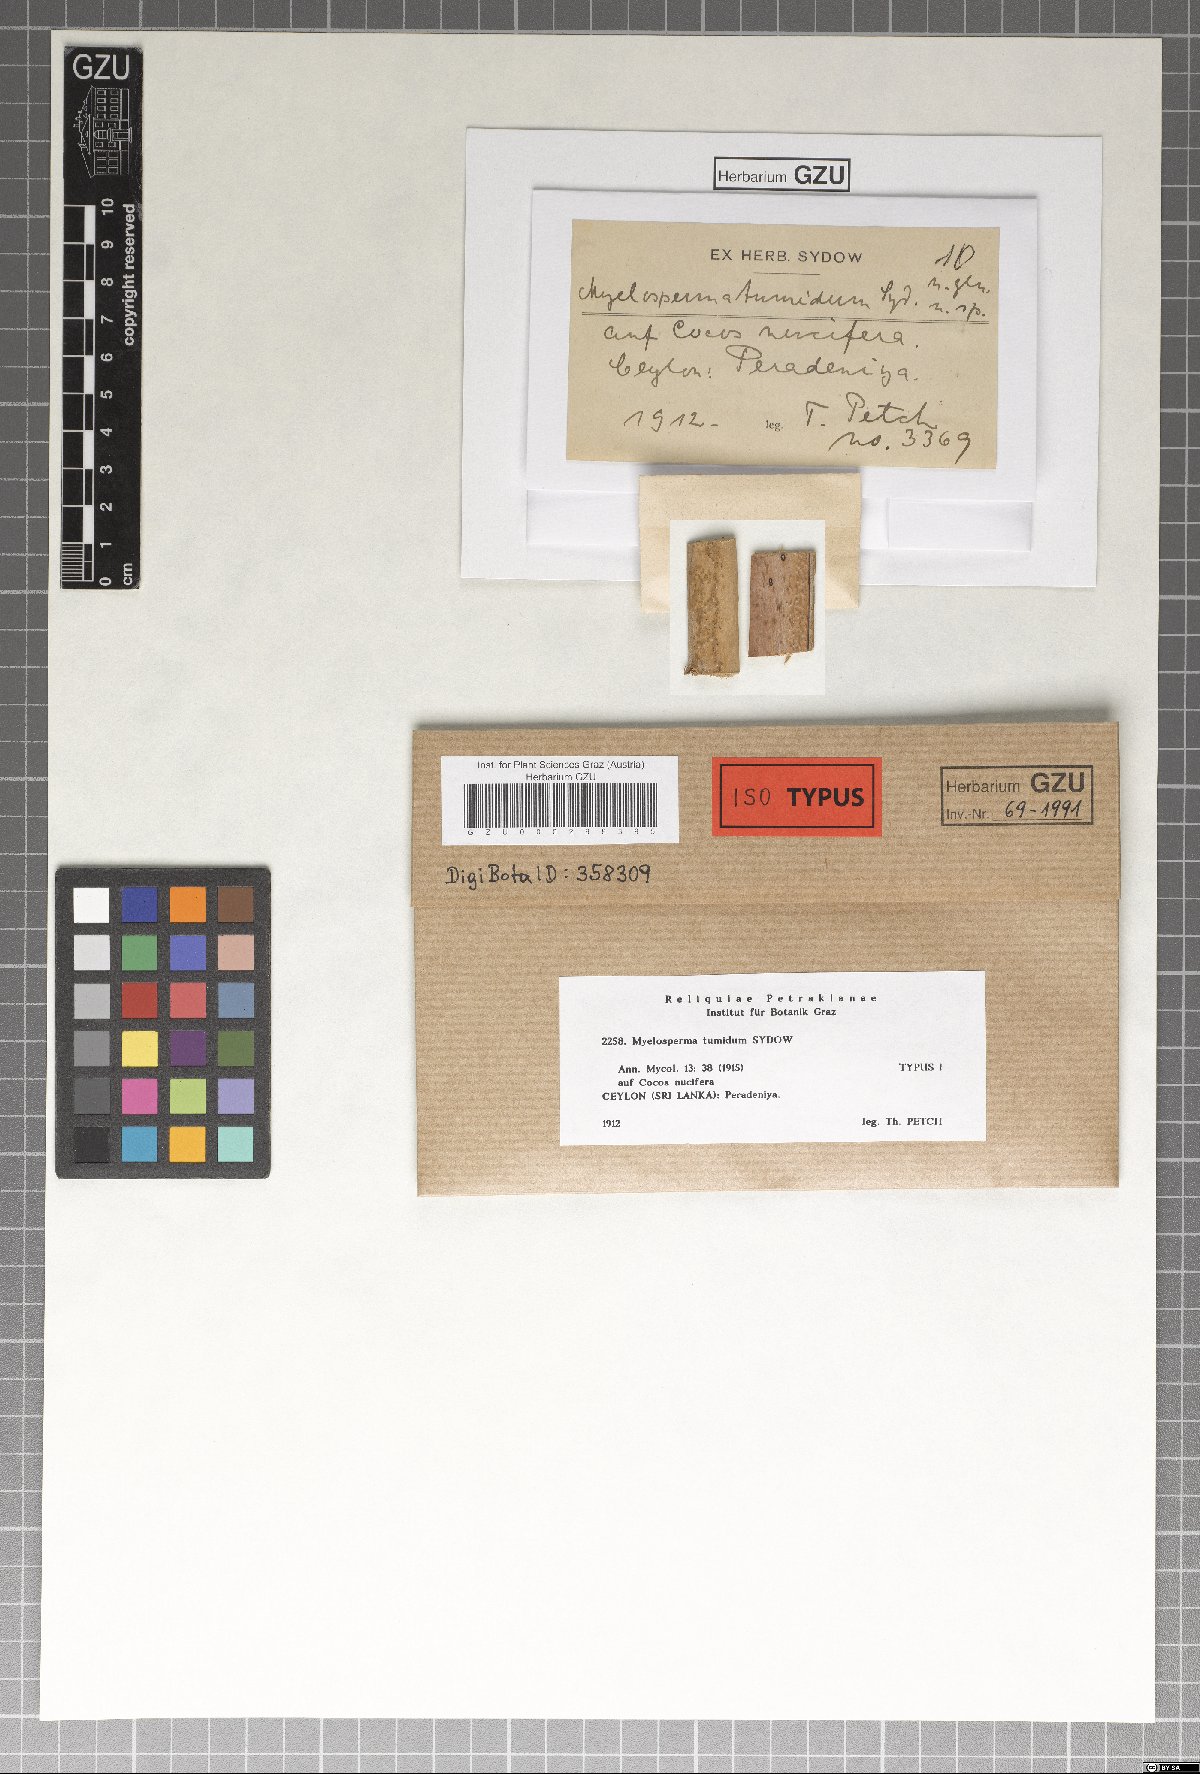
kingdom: Fungi
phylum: Ascomycota
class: Sordariomycetes
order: Xylariales
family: Myelospermataceae
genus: Myelosperma
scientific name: Myelosperma tumidum
